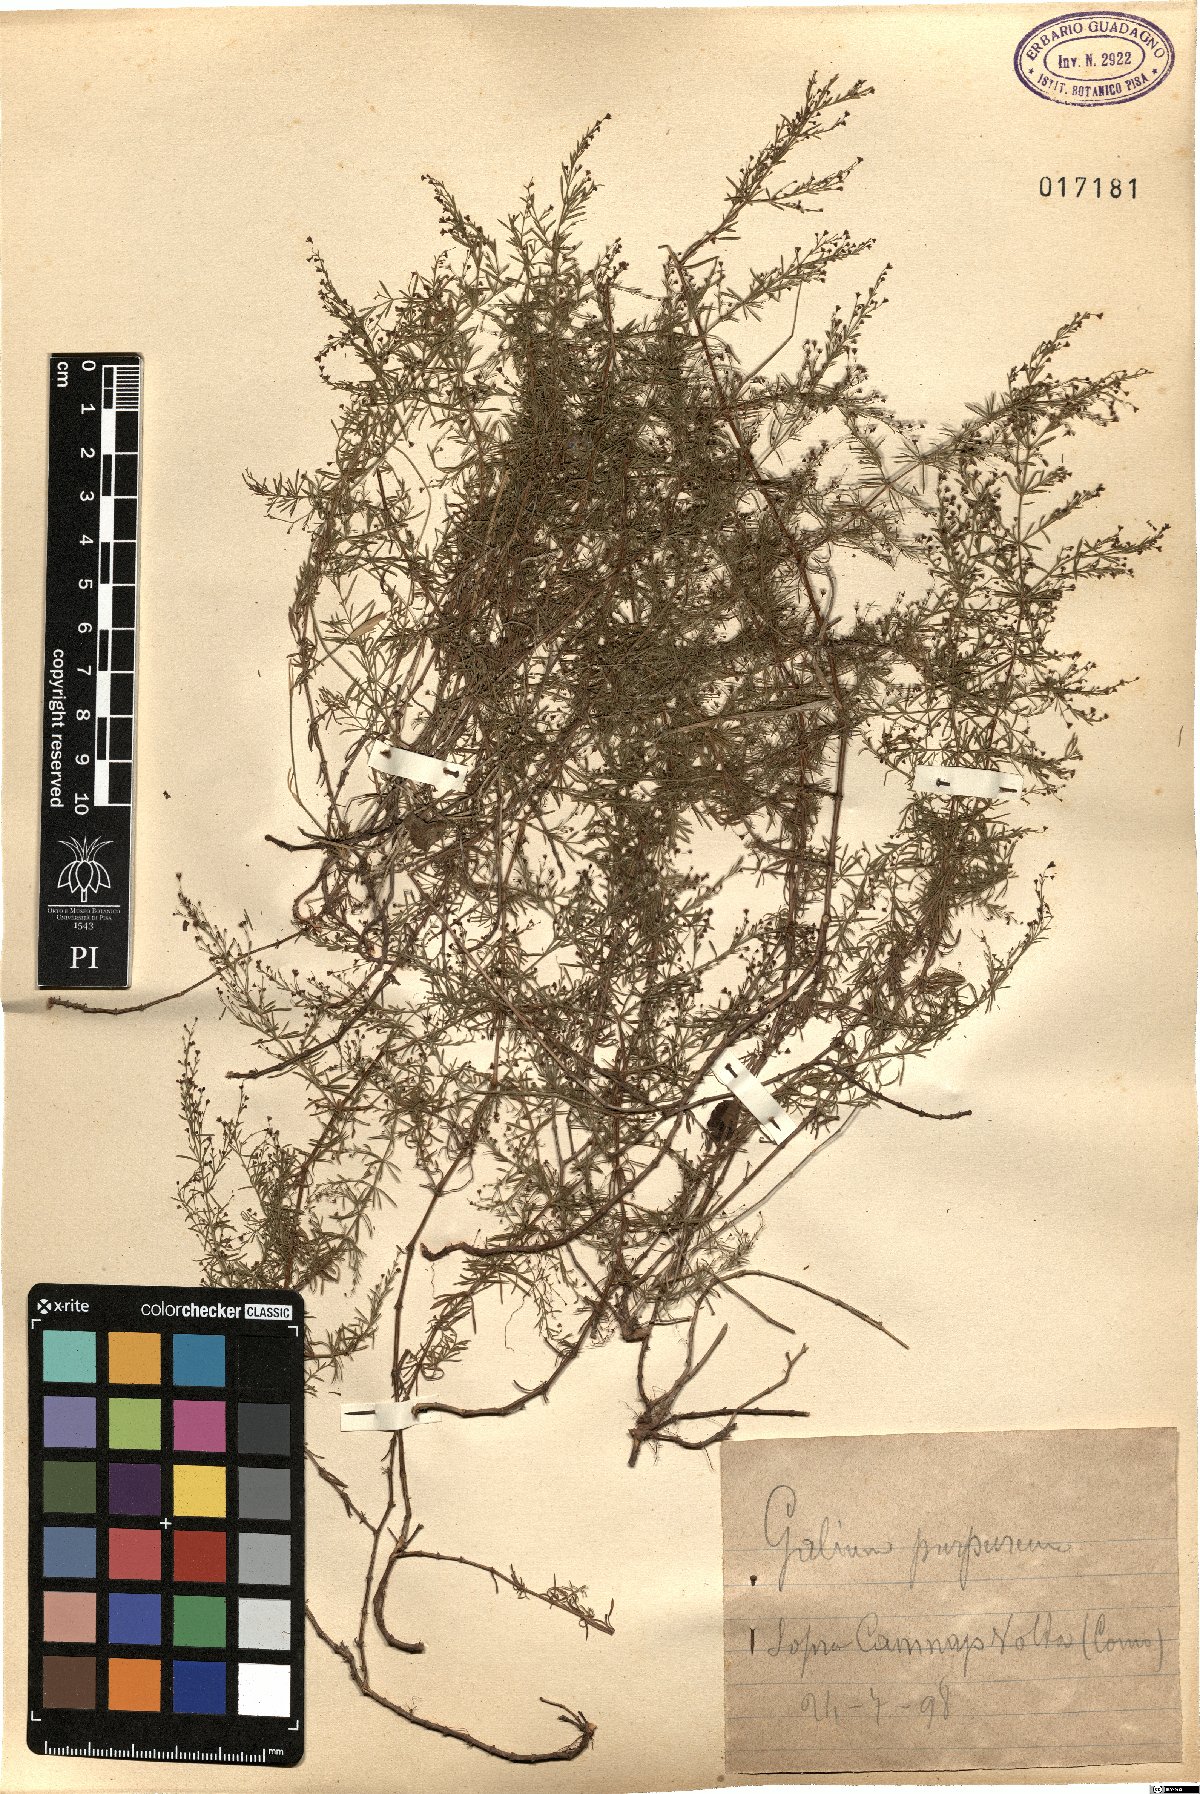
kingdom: Plantae
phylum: Tracheophyta
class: Magnoliopsida
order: Gentianales
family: Rubiaceae
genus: Thliphthisa
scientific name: Thliphthisa purpurea
